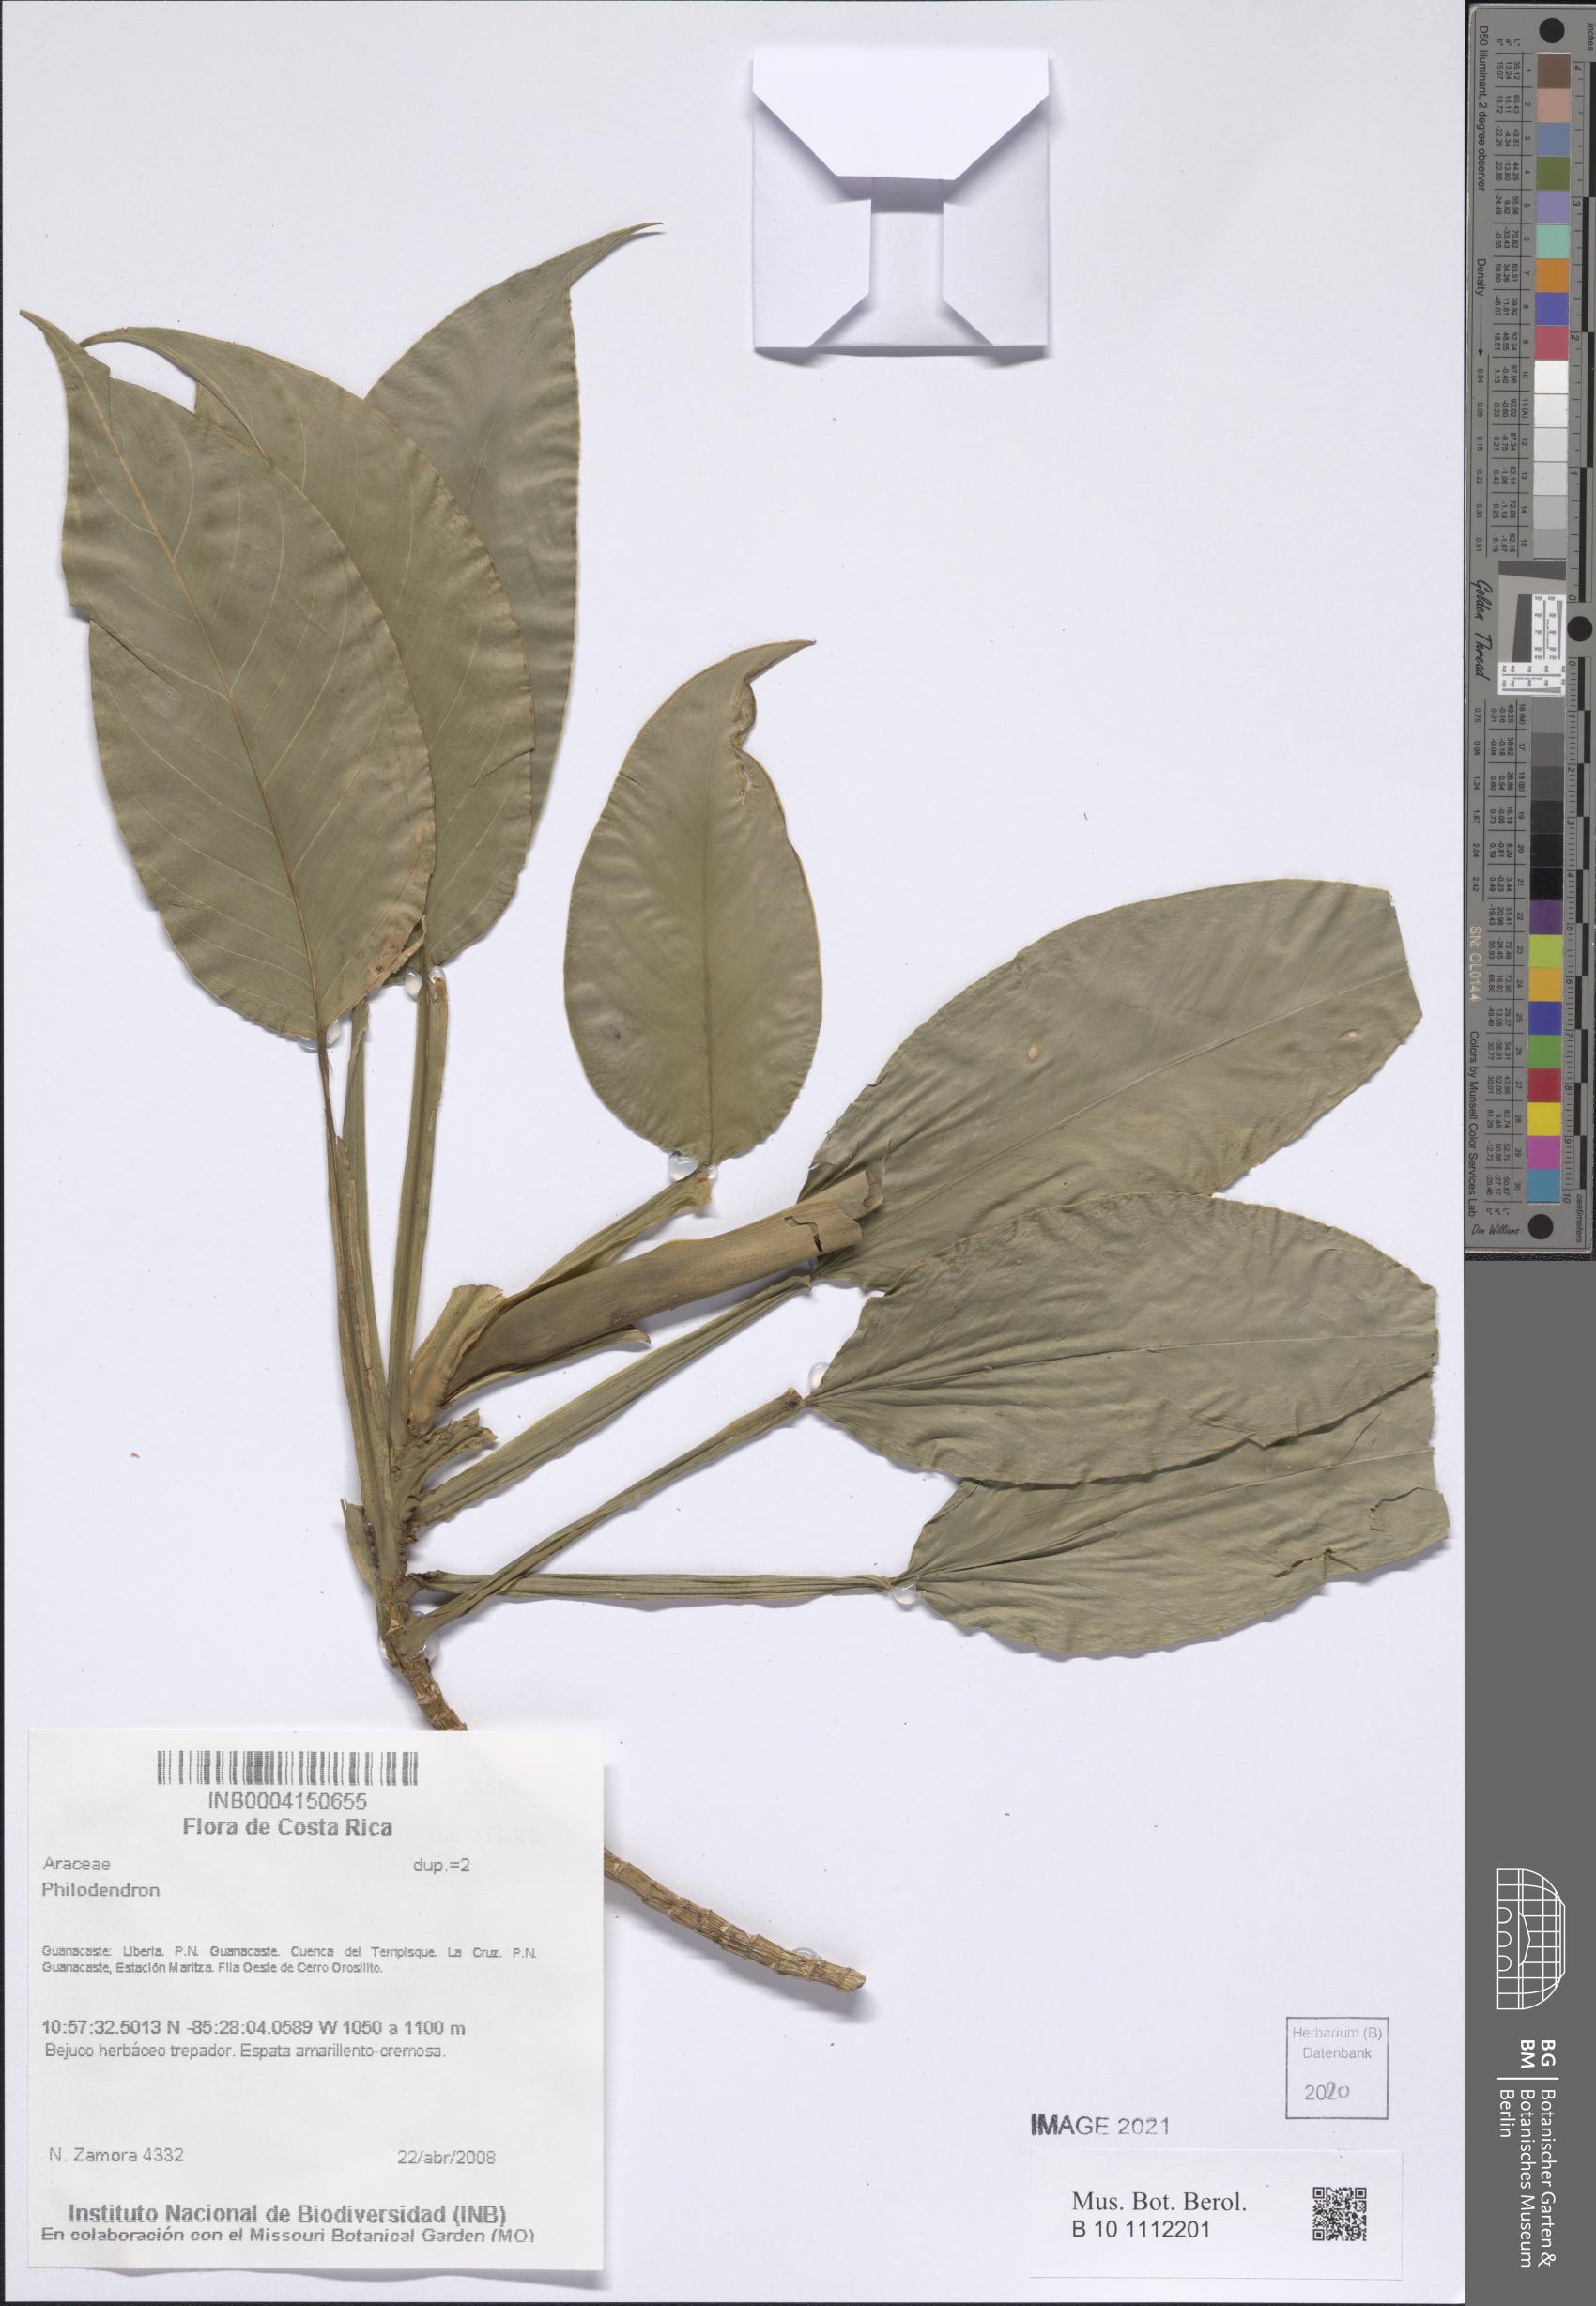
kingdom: Plantae
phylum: Tracheophyta
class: Liliopsida
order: Alismatales
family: Araceae
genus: Philodendron
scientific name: Philodendron
